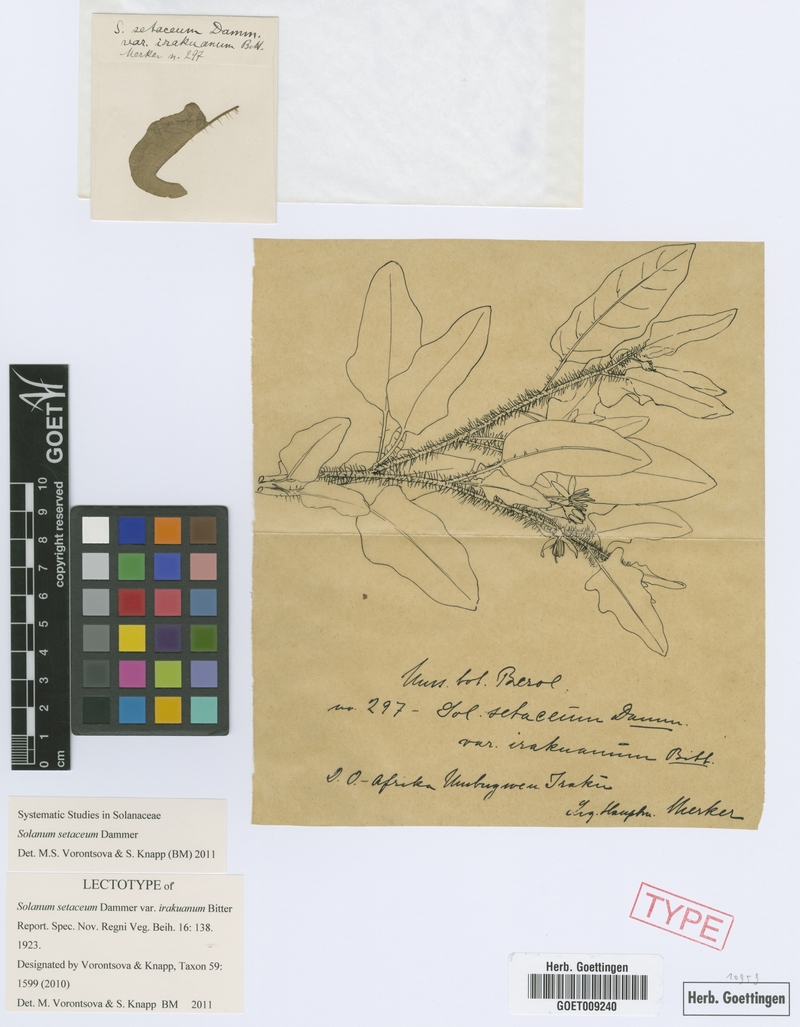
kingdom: Plantae
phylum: Tracheophyta
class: Magnoliopsida
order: Solanales
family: Solanaceae
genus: Solanum
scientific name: Solanum setaceum
